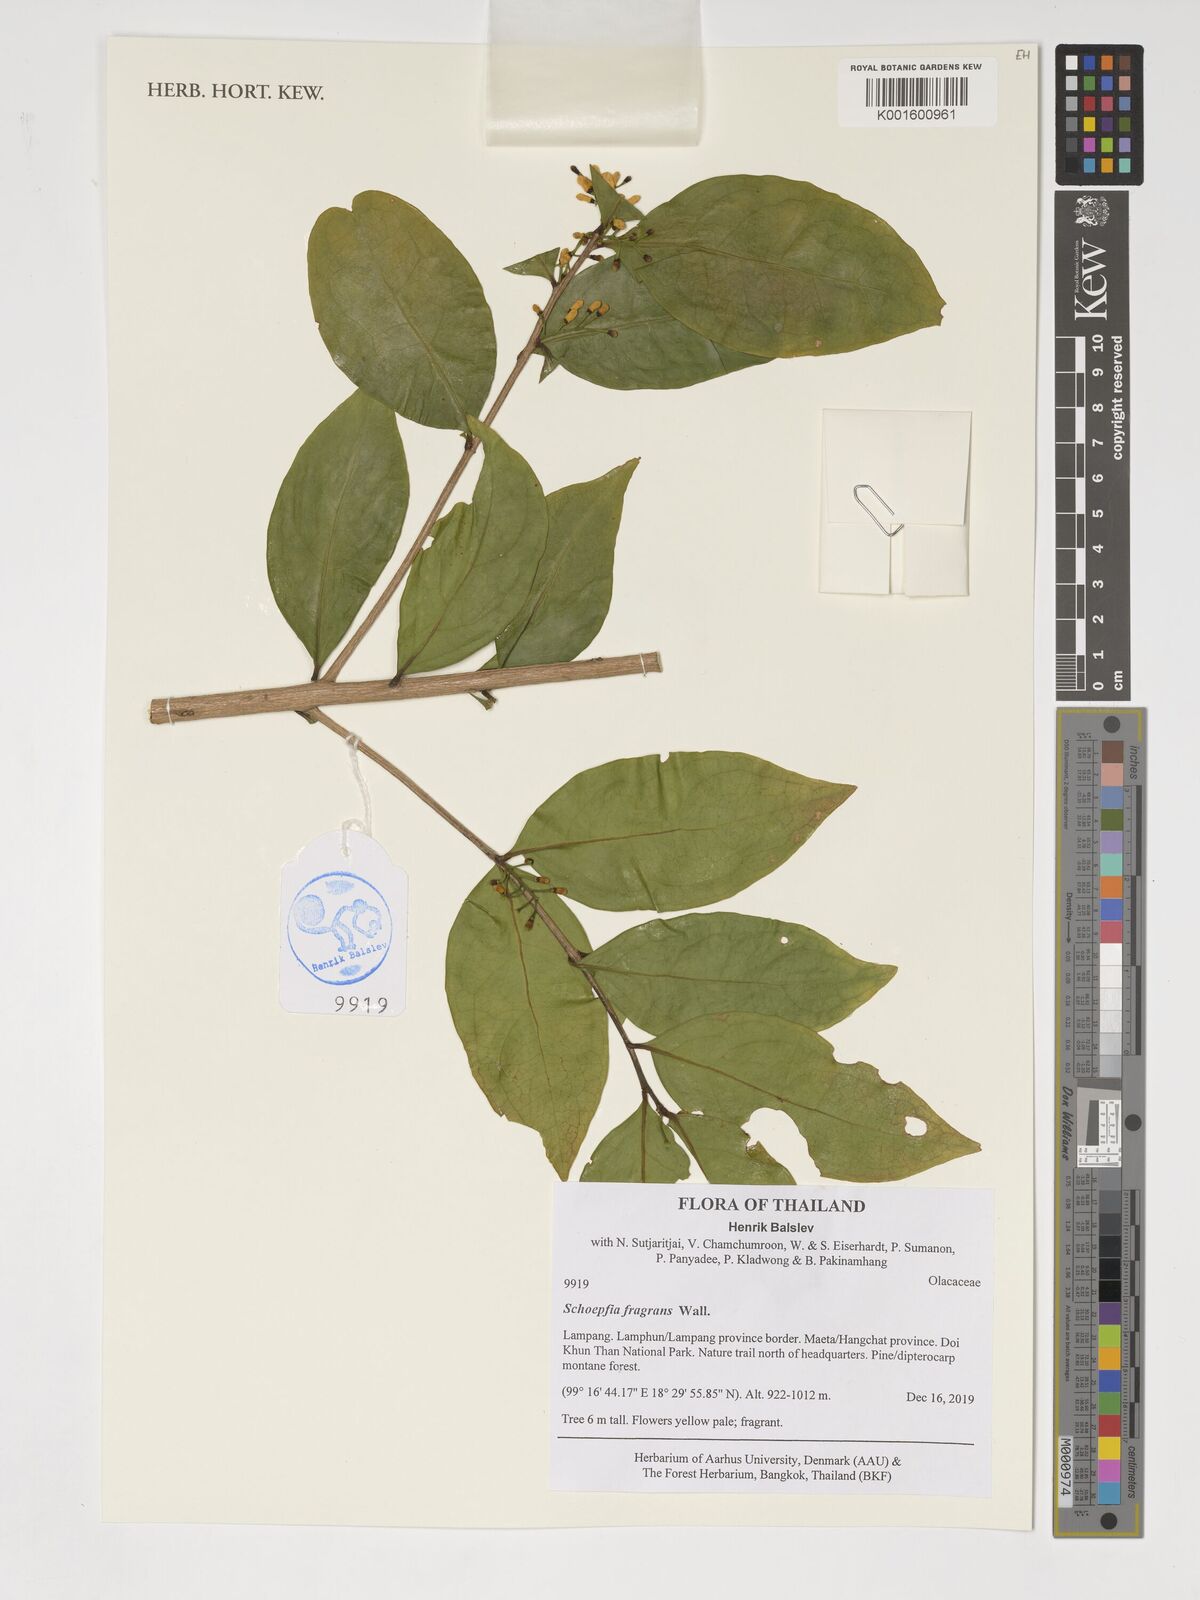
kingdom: Plantae
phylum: Tracheophyta
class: Magnoliopsida
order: Santalales
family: Schoepfiaceae
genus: Schoepfia
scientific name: Schoepfia fragrans
